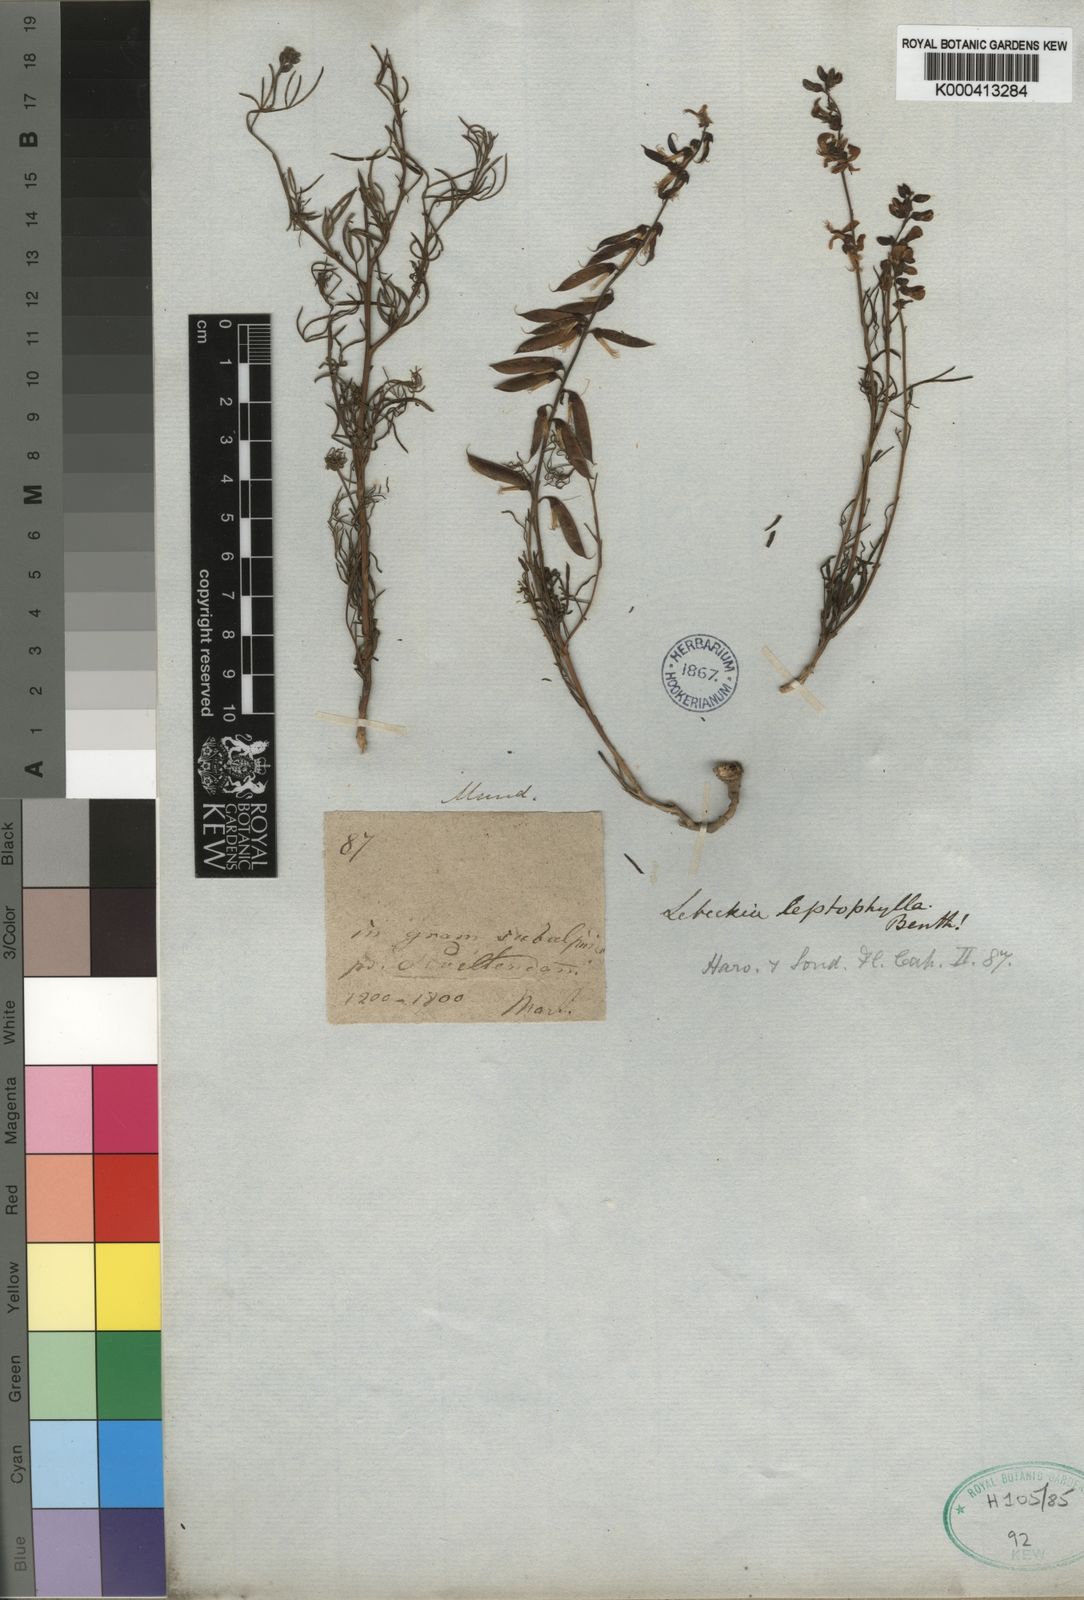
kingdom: Plantae
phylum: Tracheophyta
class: Magnoliopsida
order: Fabales
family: Fabaceae
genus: Wiborgiella
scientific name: Wiborgiella mucronata
